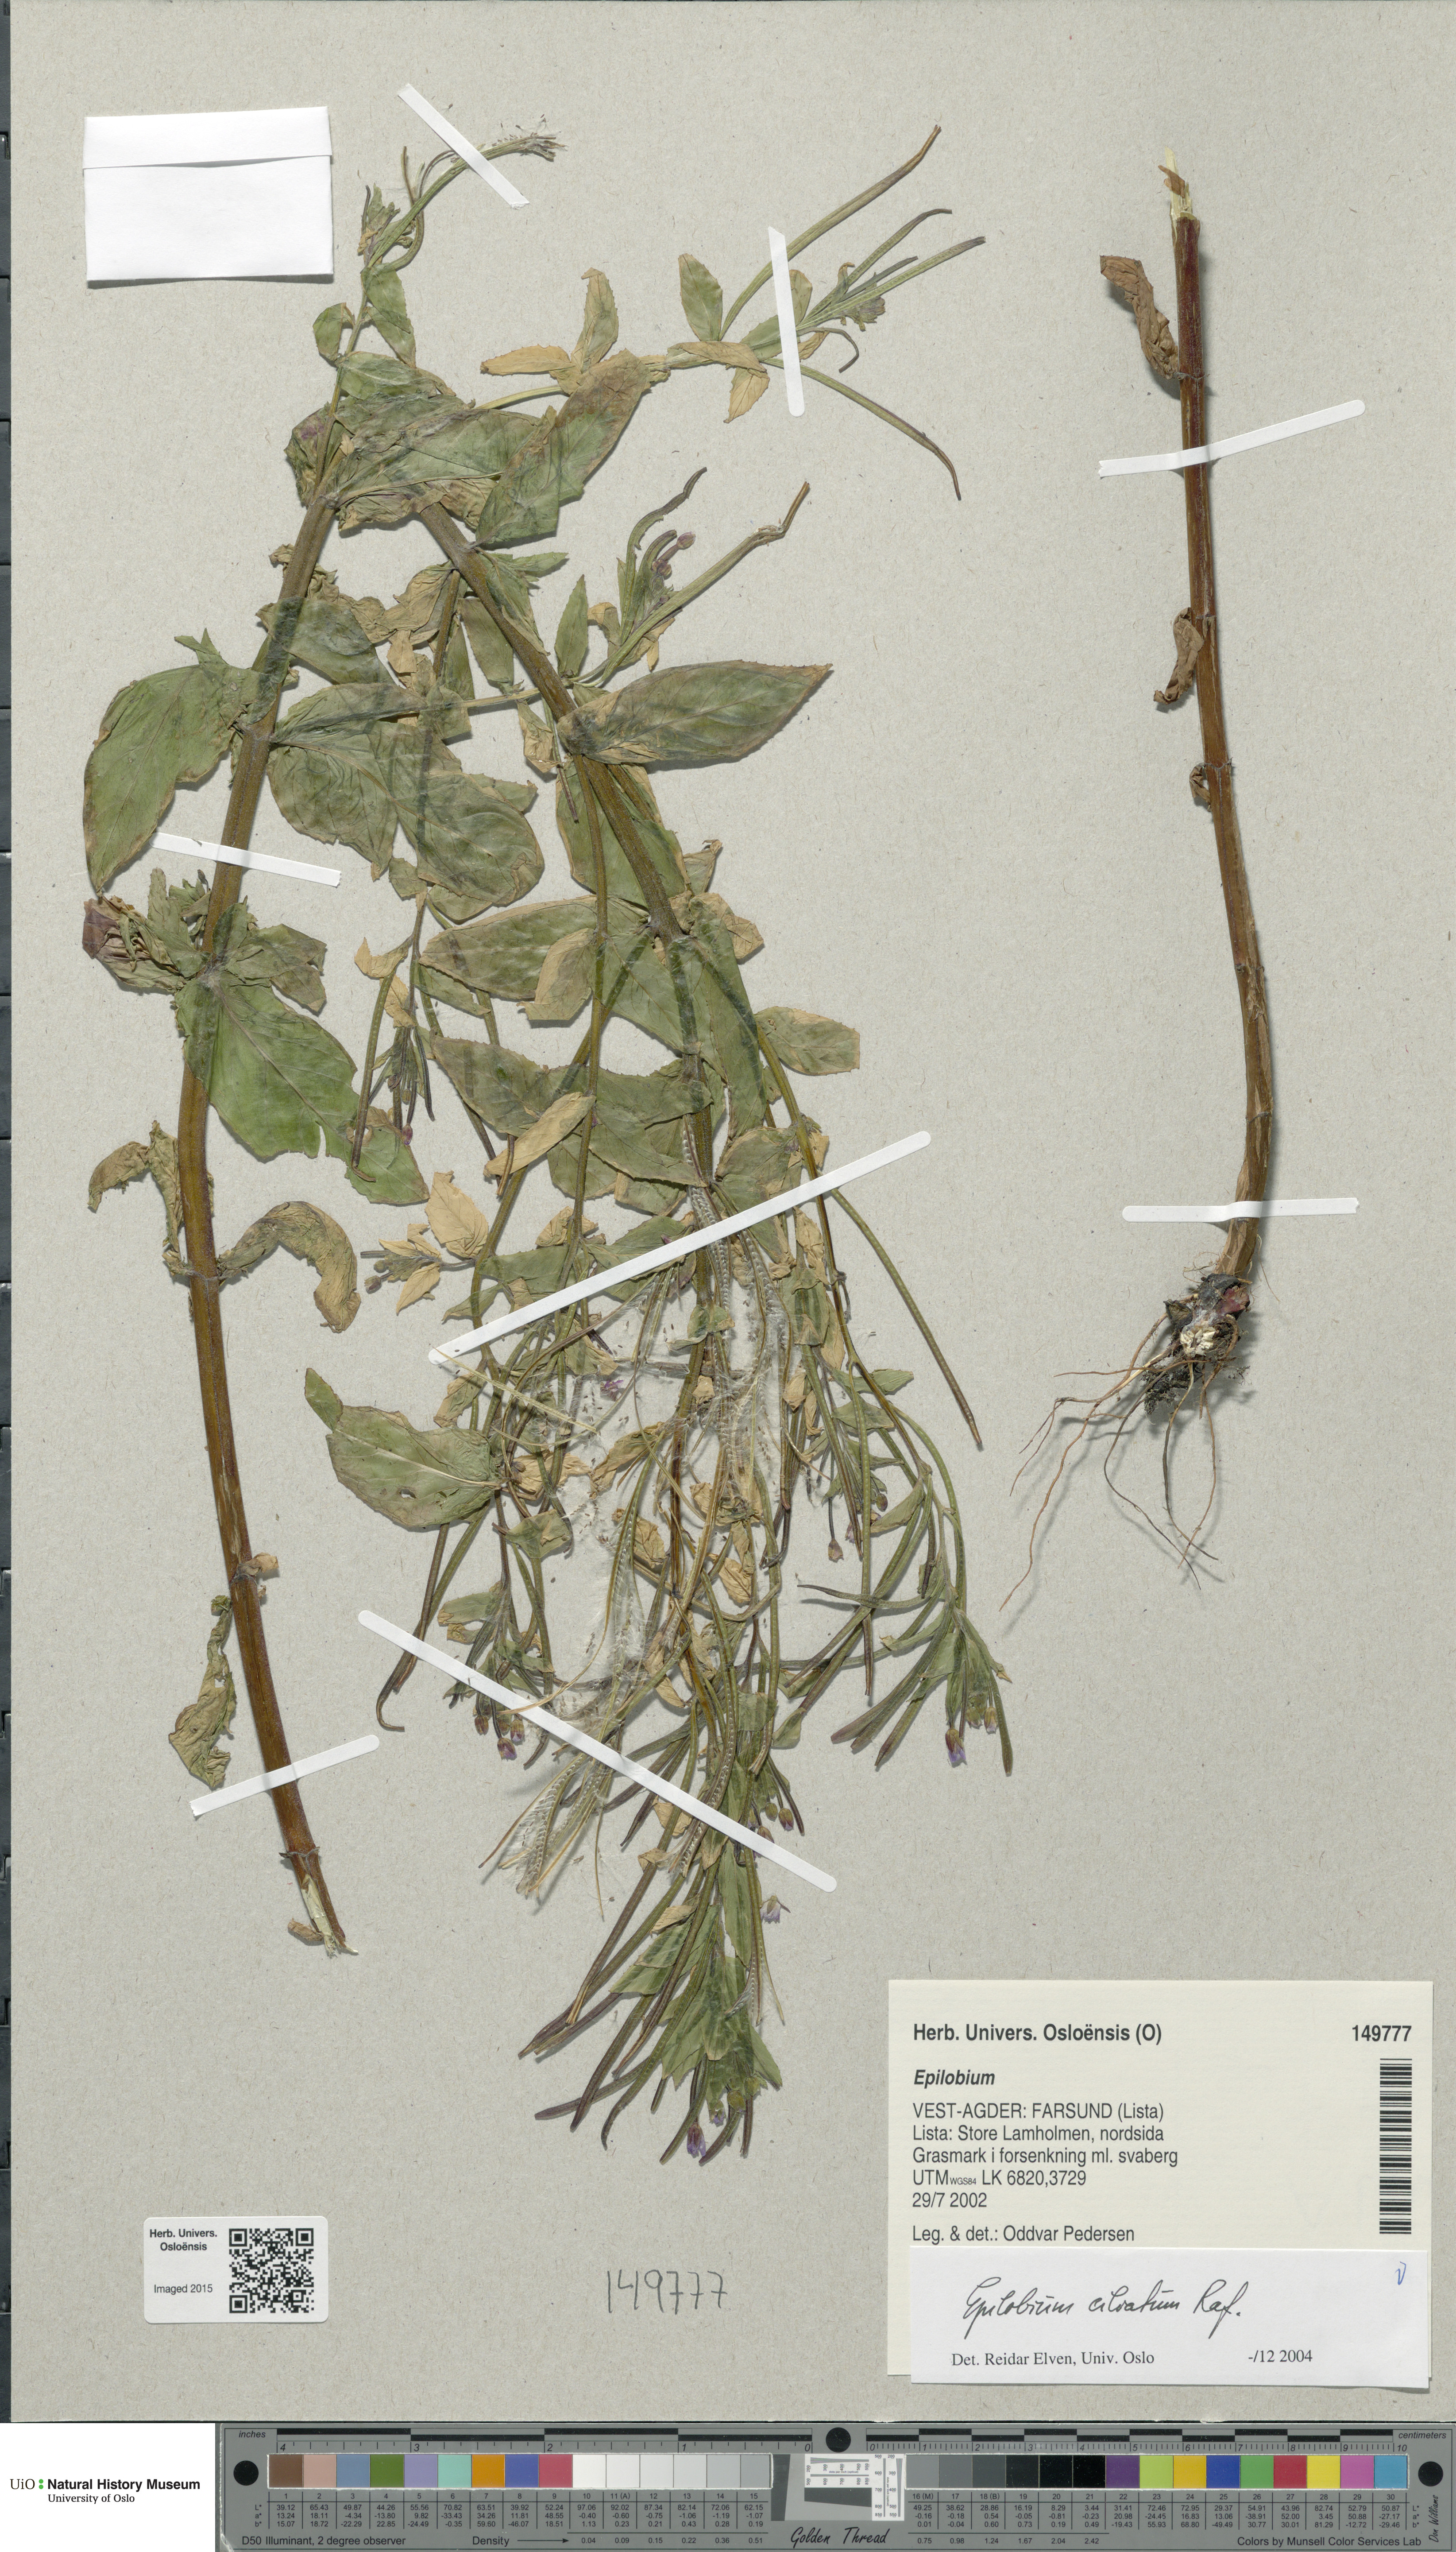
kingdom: Plantae
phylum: Tracheophyta
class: Magnoliopsida
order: Myrtales
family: Onagraceae
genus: Epilobium
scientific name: Epilobium ciliatum
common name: American willowherb
